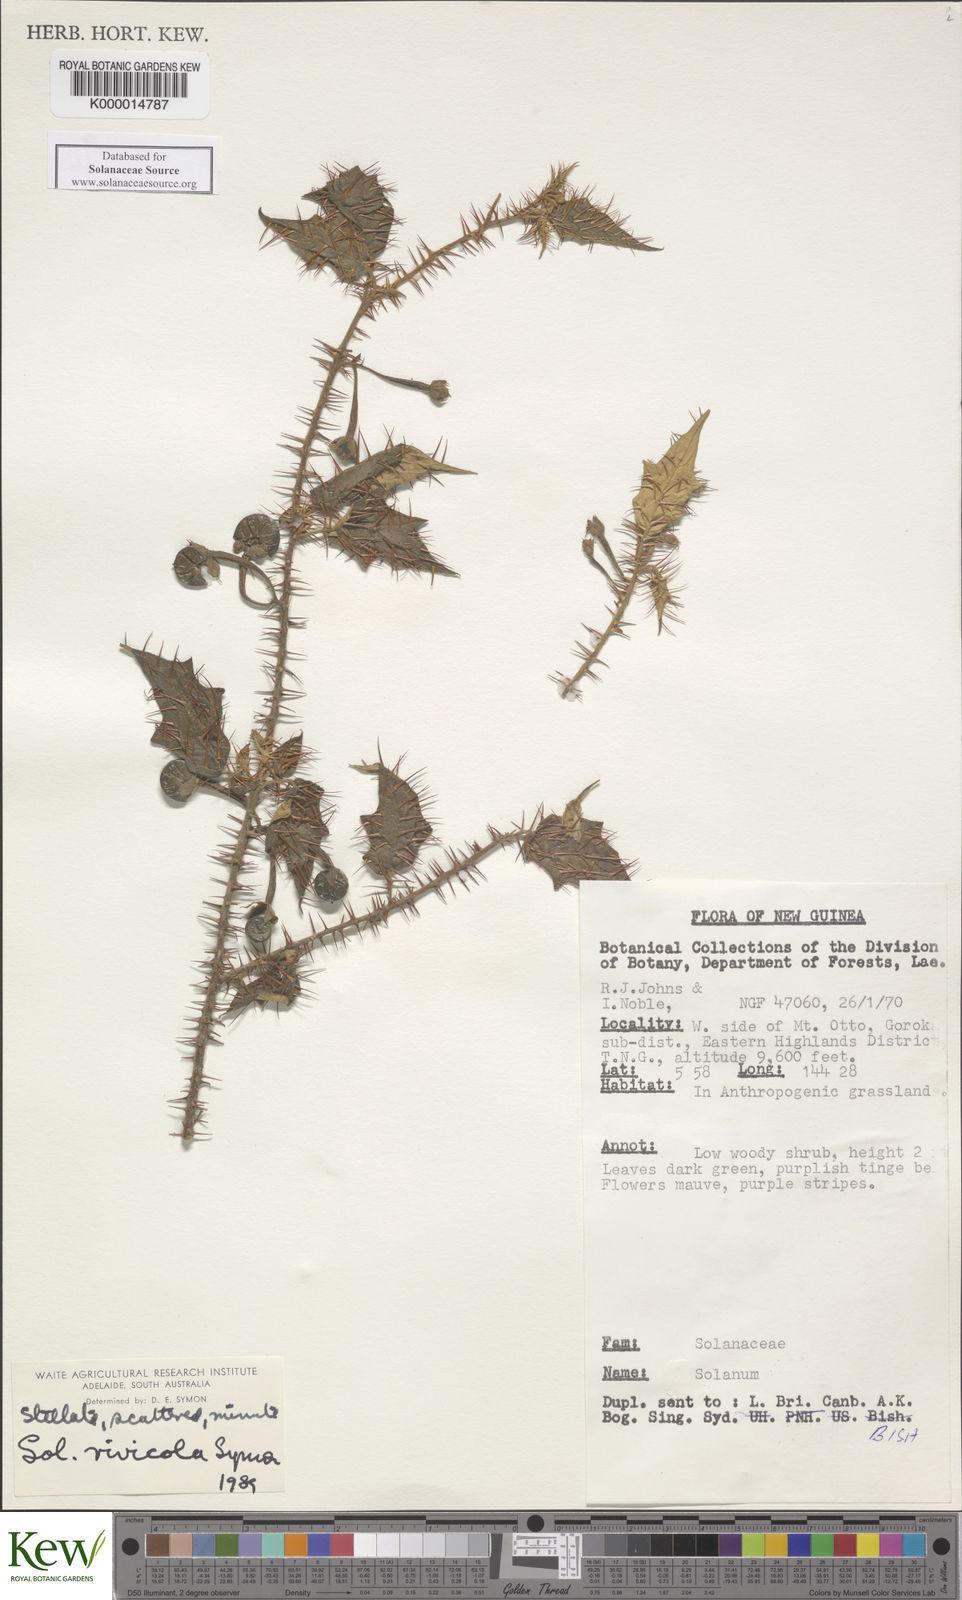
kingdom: Plantae
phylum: Tracheophyta
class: Magnoliopsida
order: Solanales
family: Solanaceae
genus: Solanum
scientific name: Solanum rivicola
